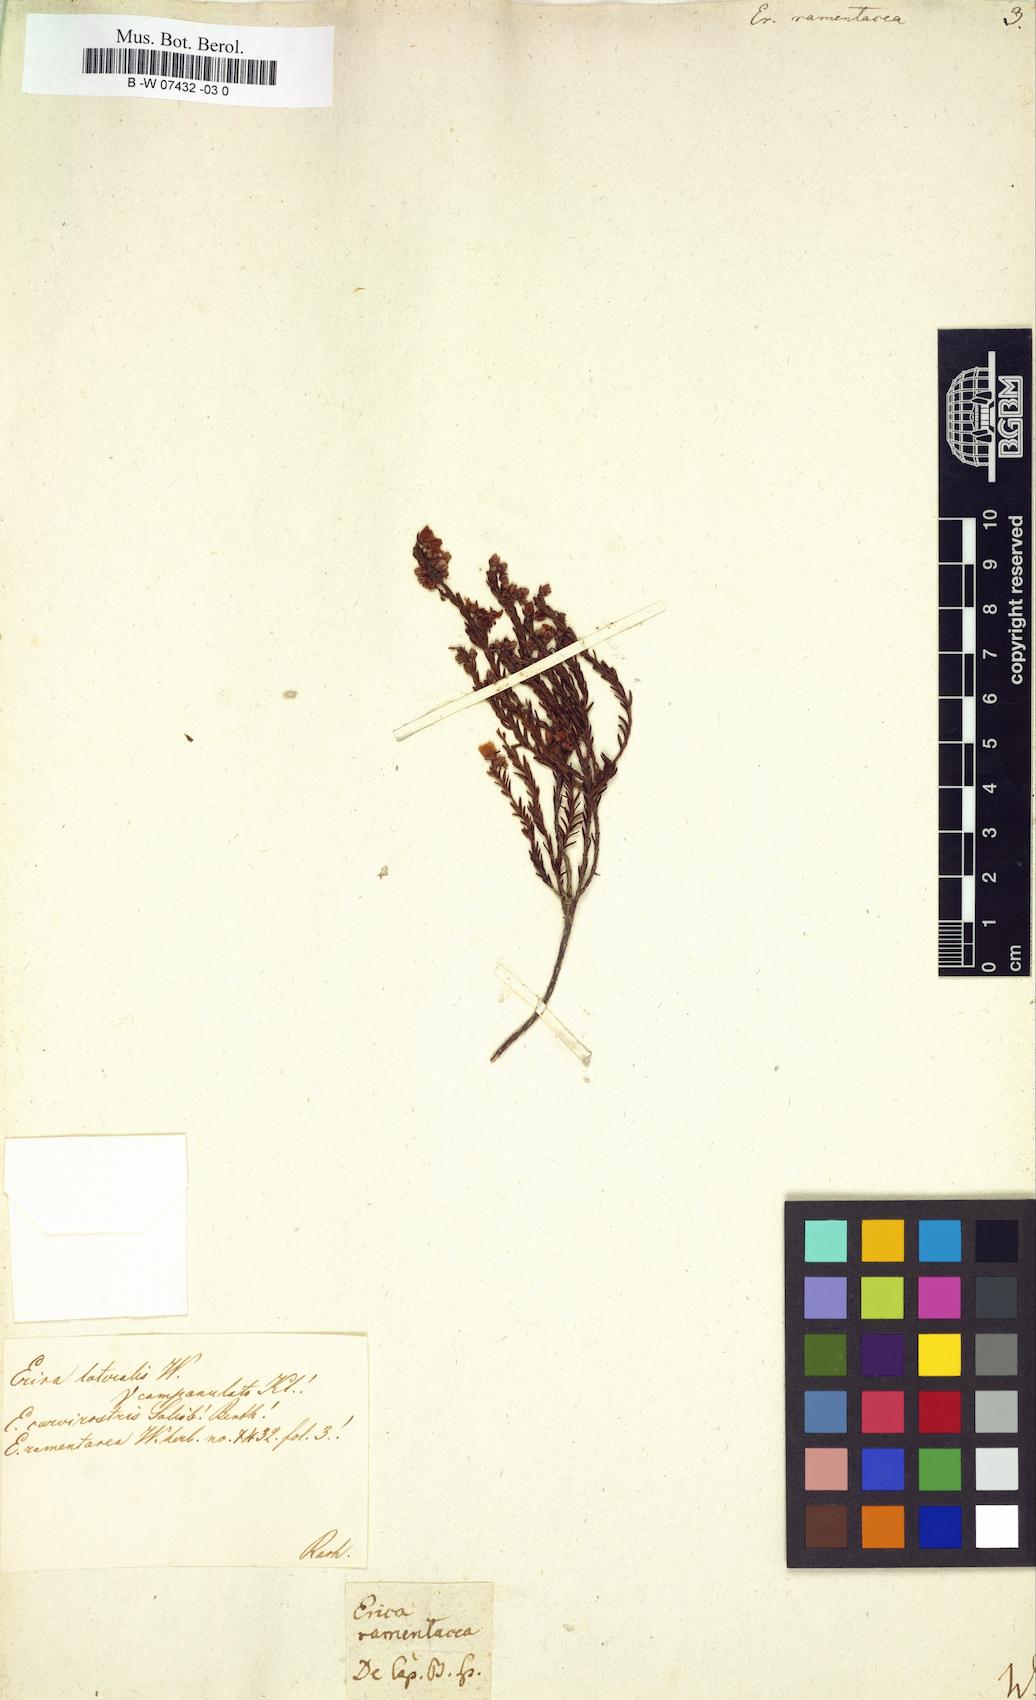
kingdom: Plantae
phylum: Tracheophyta
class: Magnoliopsida
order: Ericales
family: Ericaceae
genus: Erica
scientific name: Erica multumbellifera
